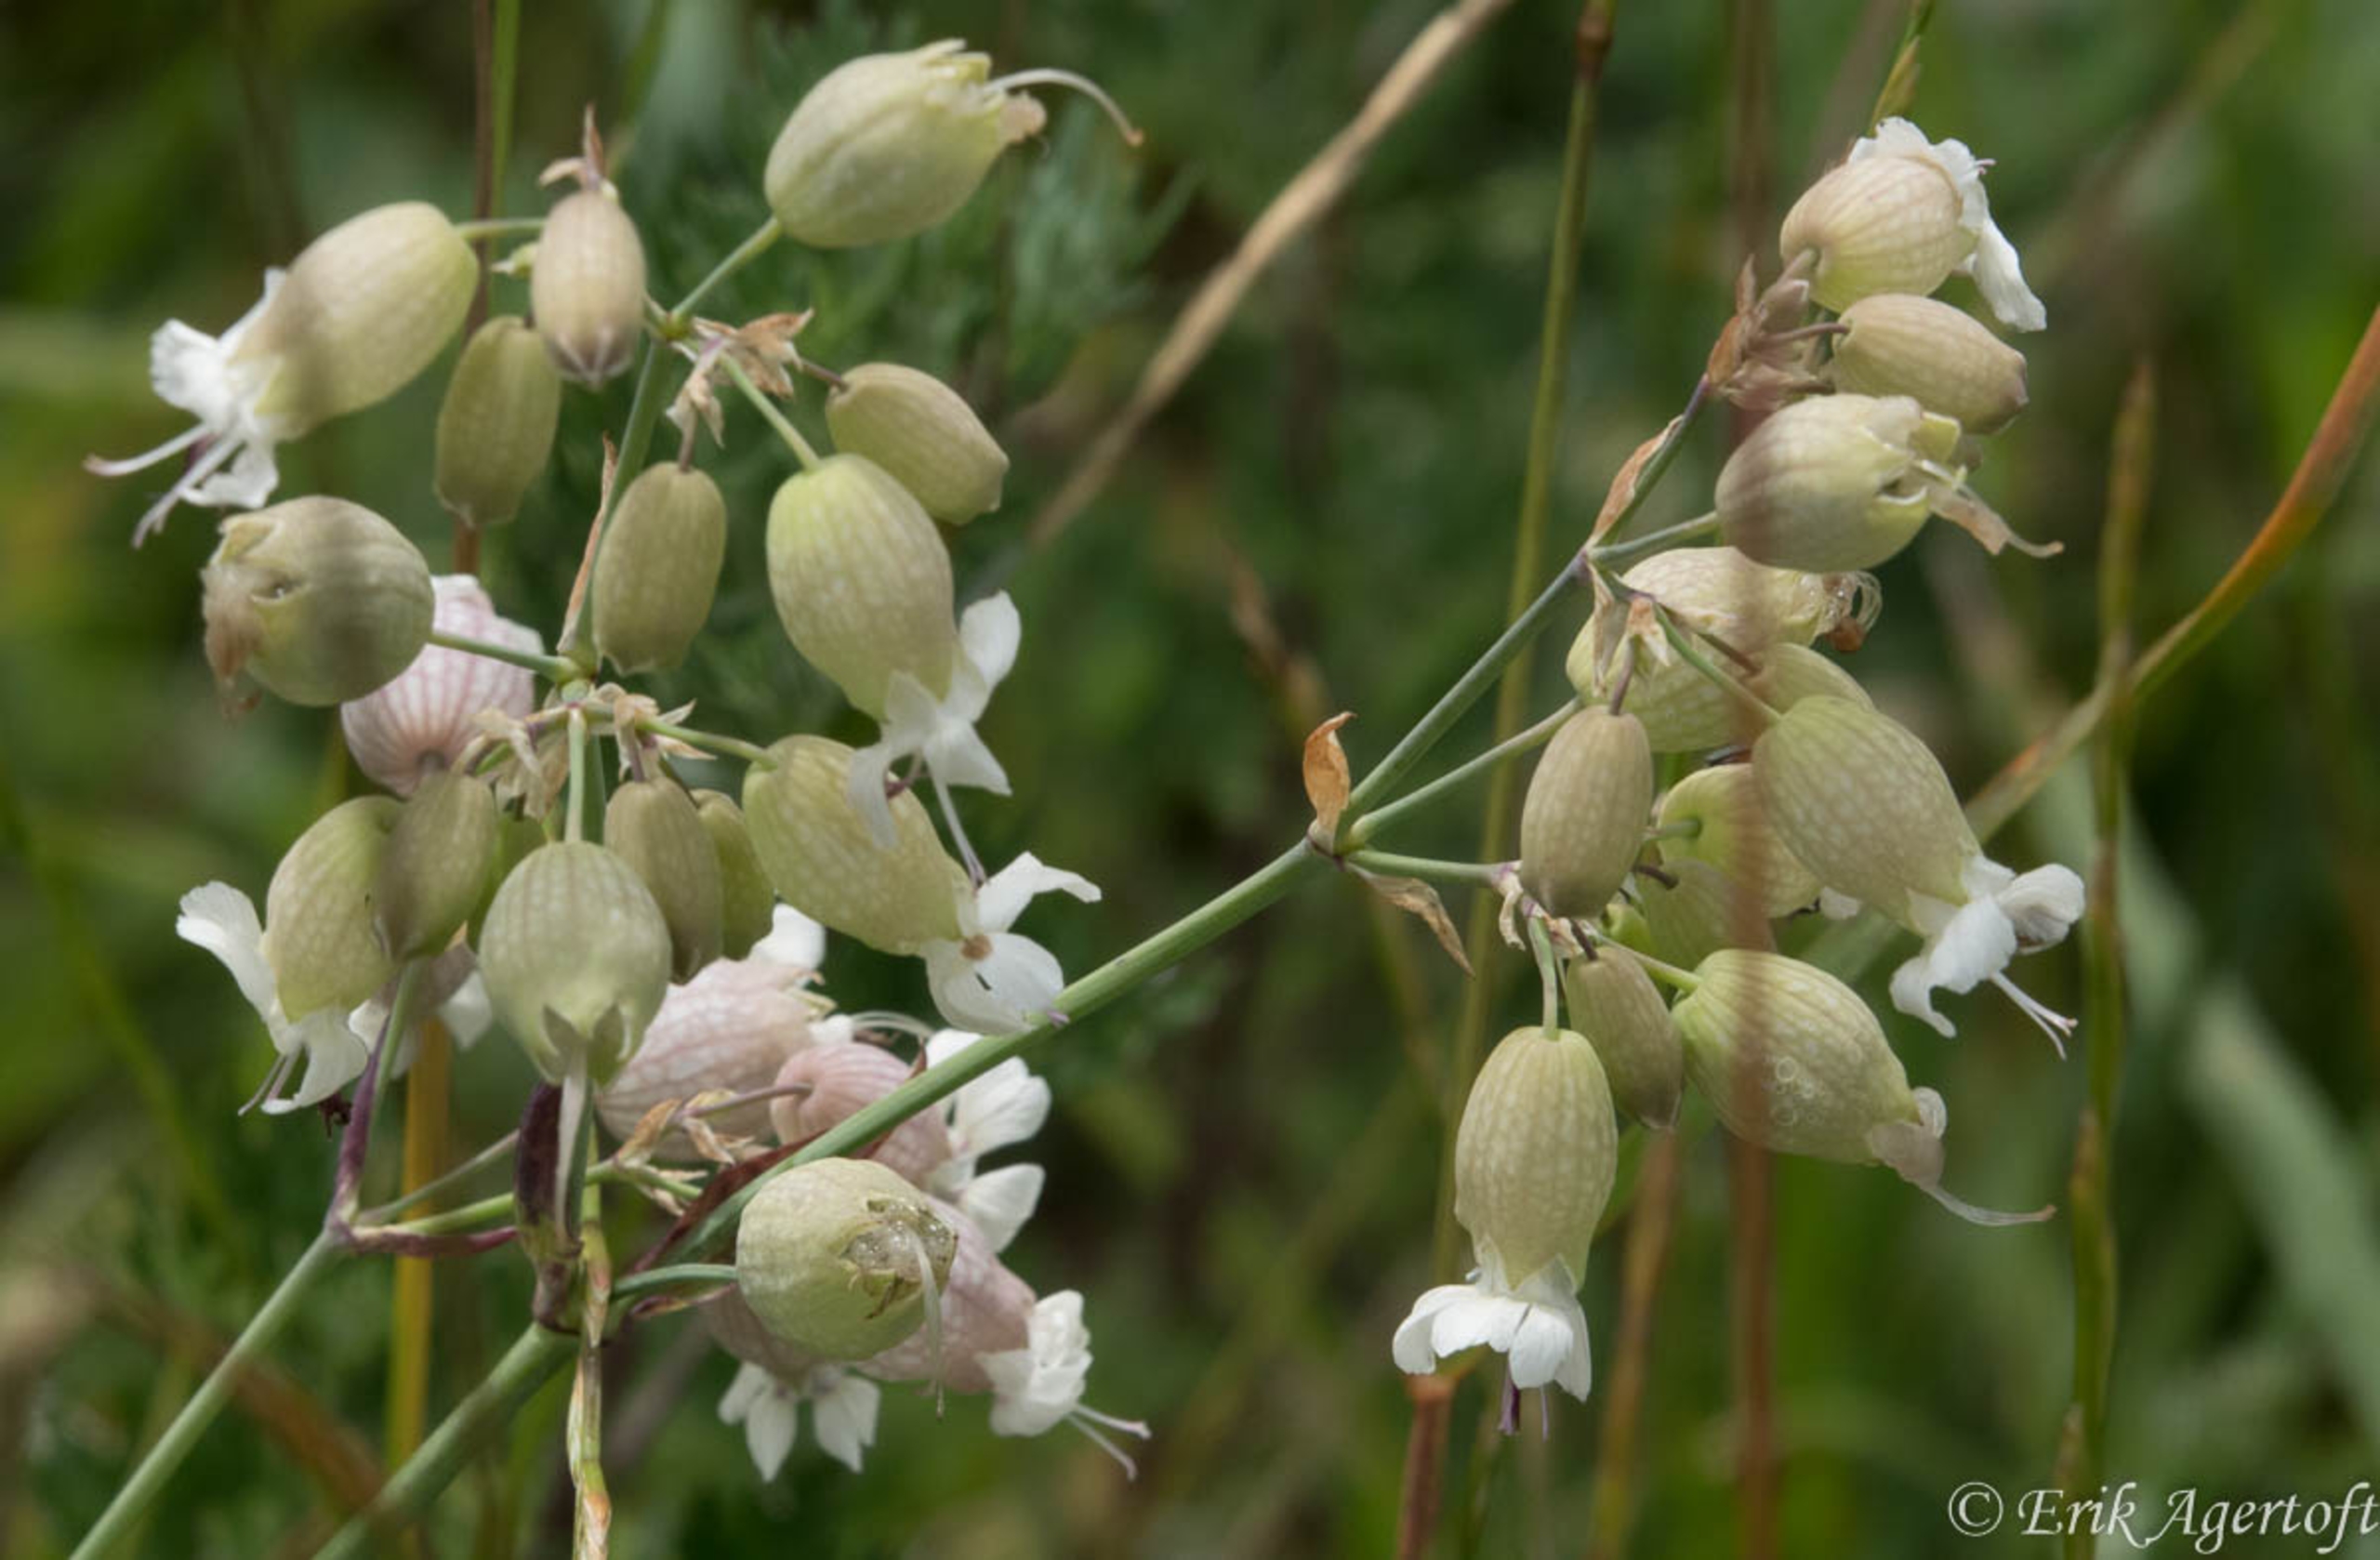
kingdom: Plantae
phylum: Tracheophyta
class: Magnoliopsida
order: Caryophyllales
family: Caryophyllaceae
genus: Silene
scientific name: Silene vulgaris
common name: Blæresmælde
